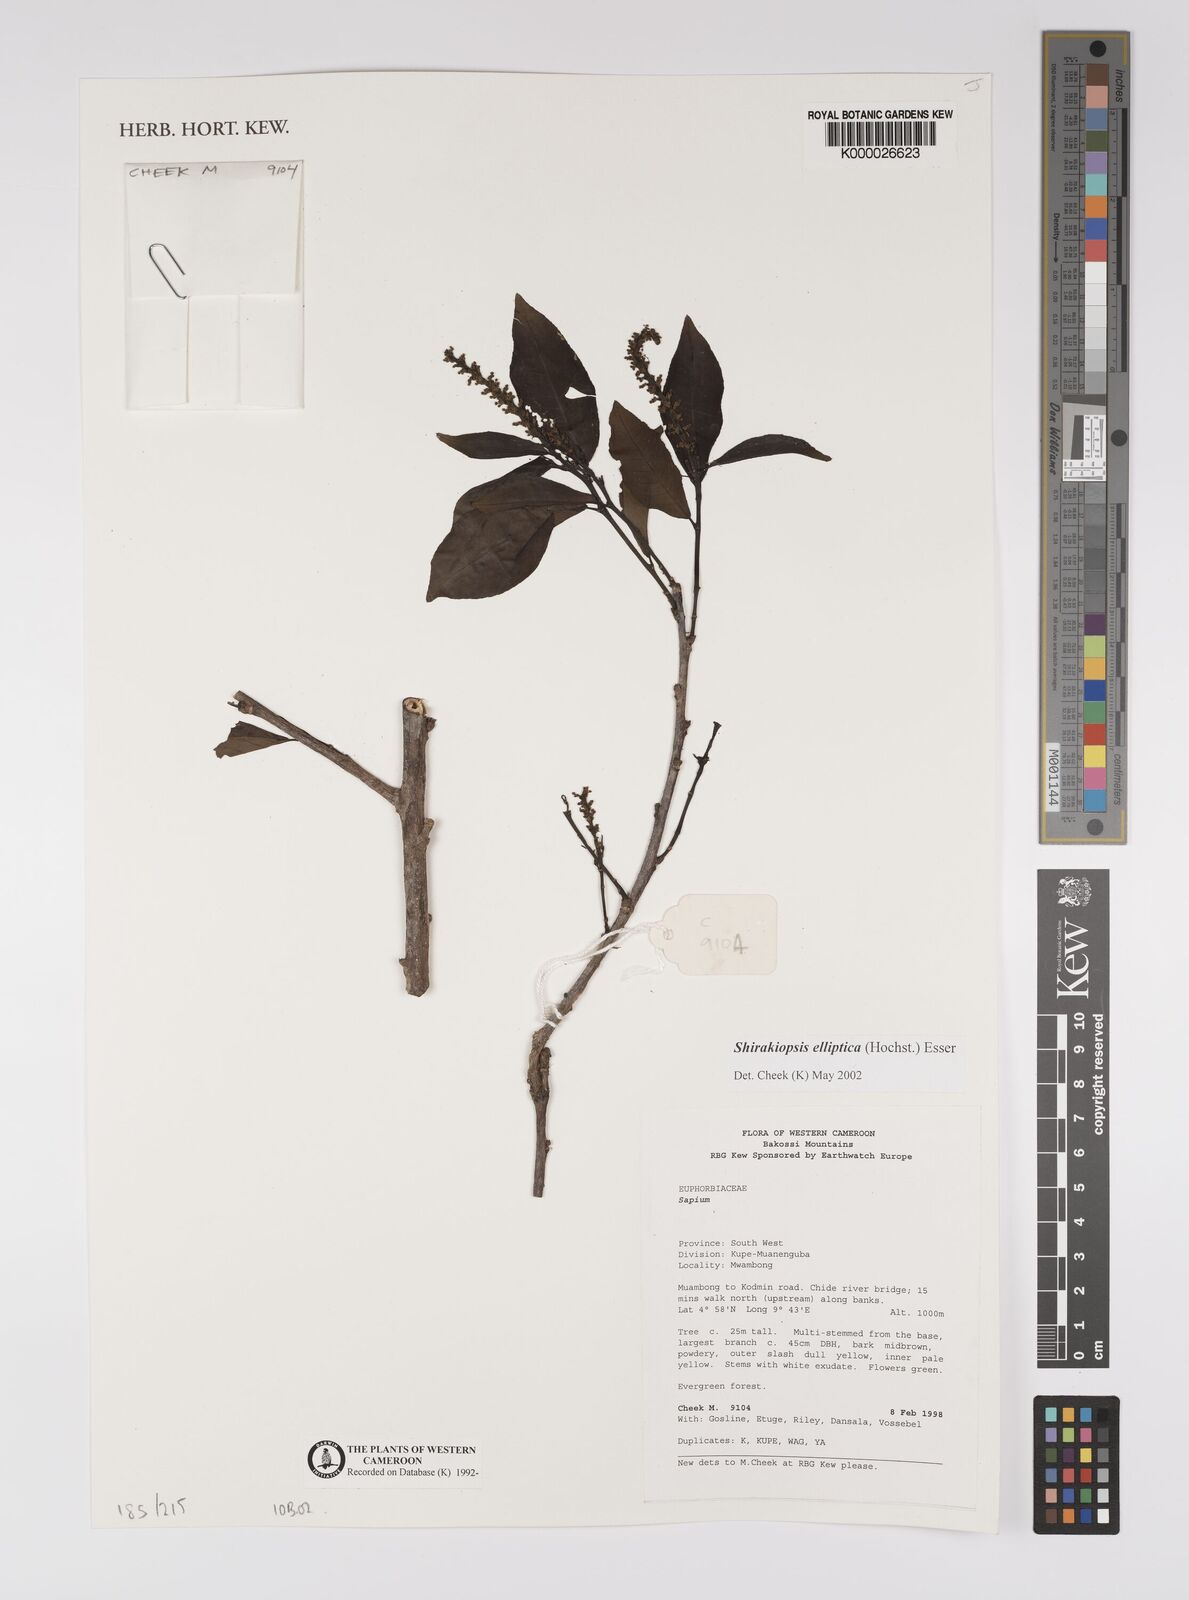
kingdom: Plantae
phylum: Tracheophyta
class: Magnoliopsida
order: Malpighiales
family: Euphorbiaceae
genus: Shirakiopsis
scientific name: Shirakiopsis elliptica
